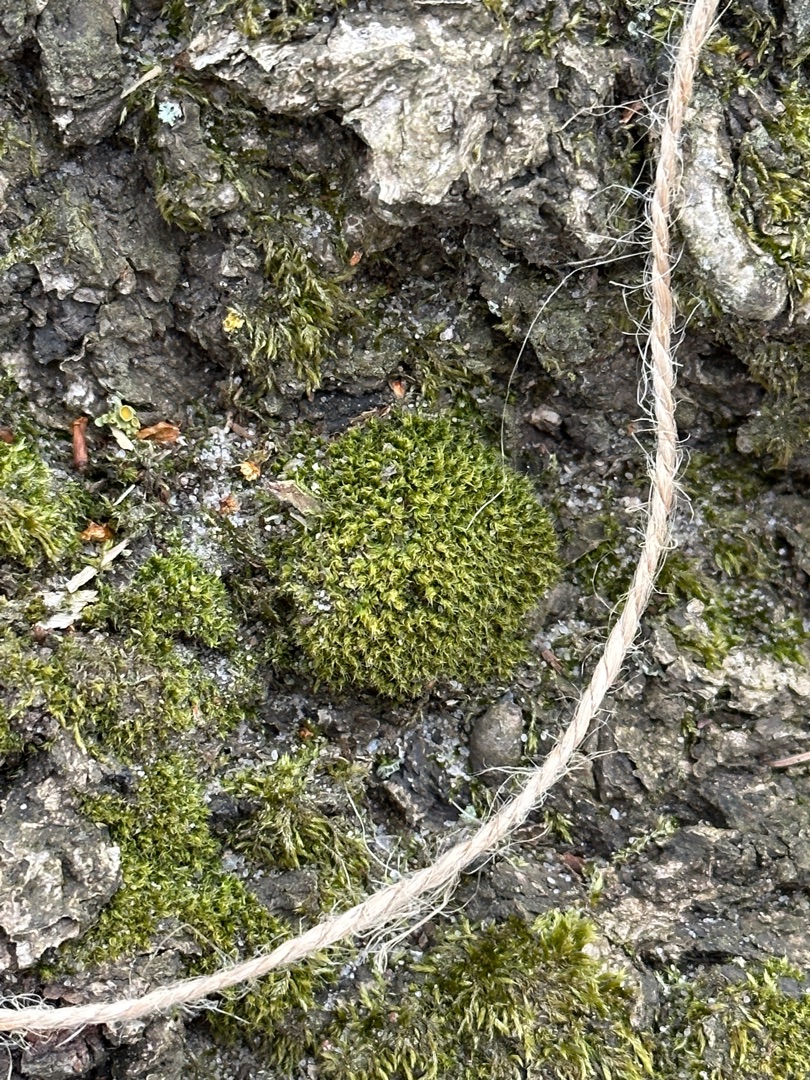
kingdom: Plantae
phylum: Bryophyta
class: Bryopsida
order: Bryales
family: Bryaceae
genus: Bryum
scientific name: Bryum
